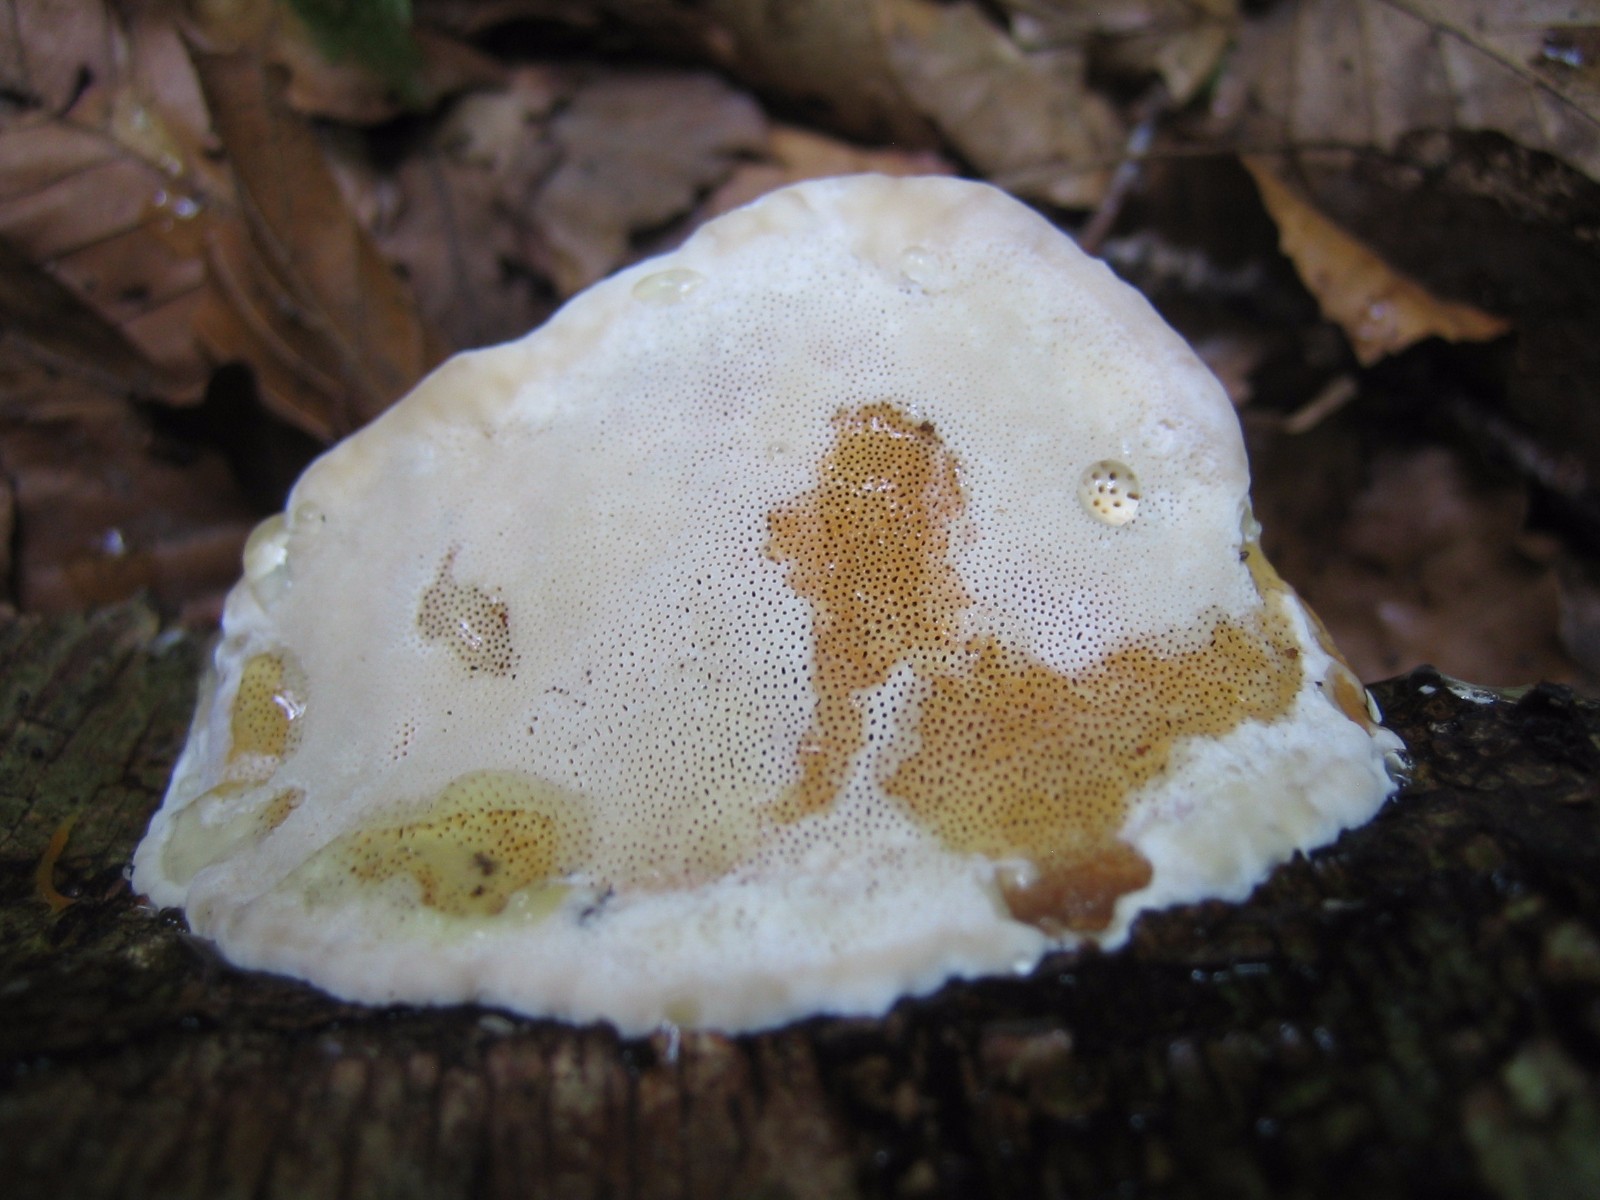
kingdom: Fungi
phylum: Basidiomycota
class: Agaricomycetes
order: Polyporales
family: Fomitopsidaceae
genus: Fomitopsis
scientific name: Fomitopsis pinicola
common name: randbæltet hovporesvamp
